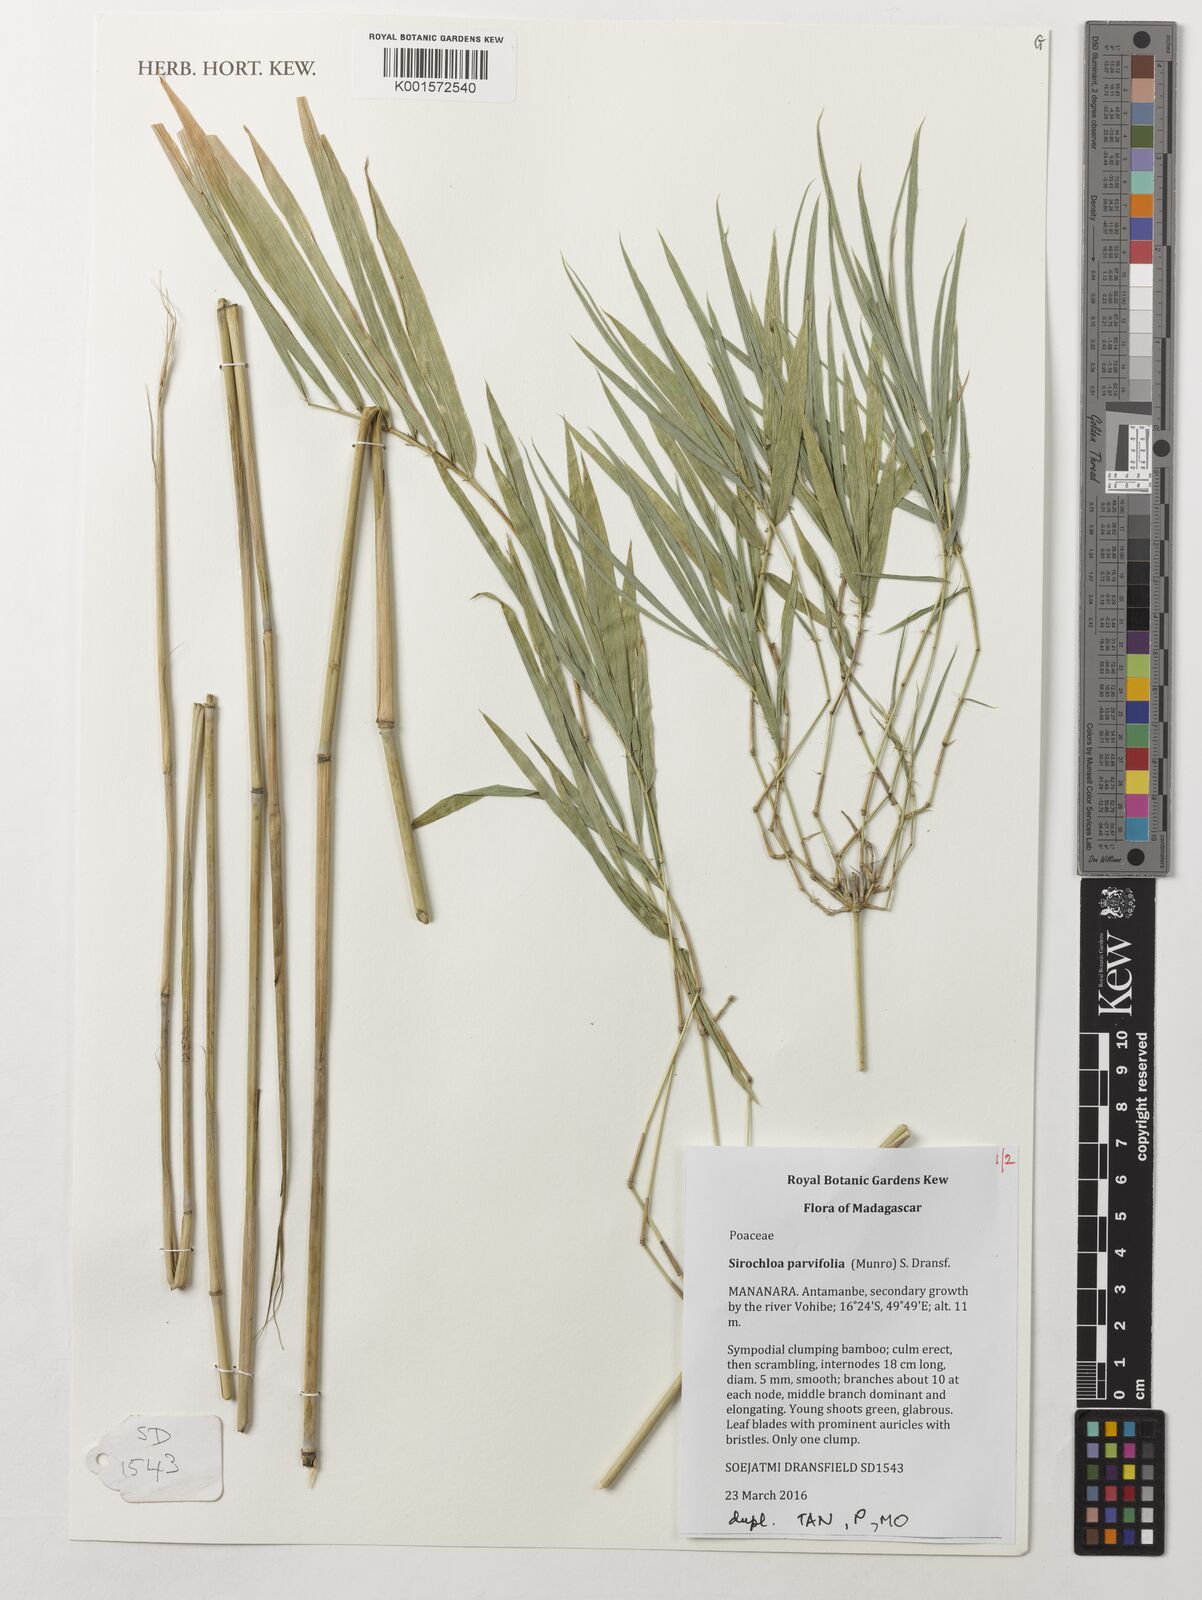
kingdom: Plantae
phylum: Tracheophyta
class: Liliopsida
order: Poales
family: Poaceae
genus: Sirochloa
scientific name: Sirochloa parvifolia
